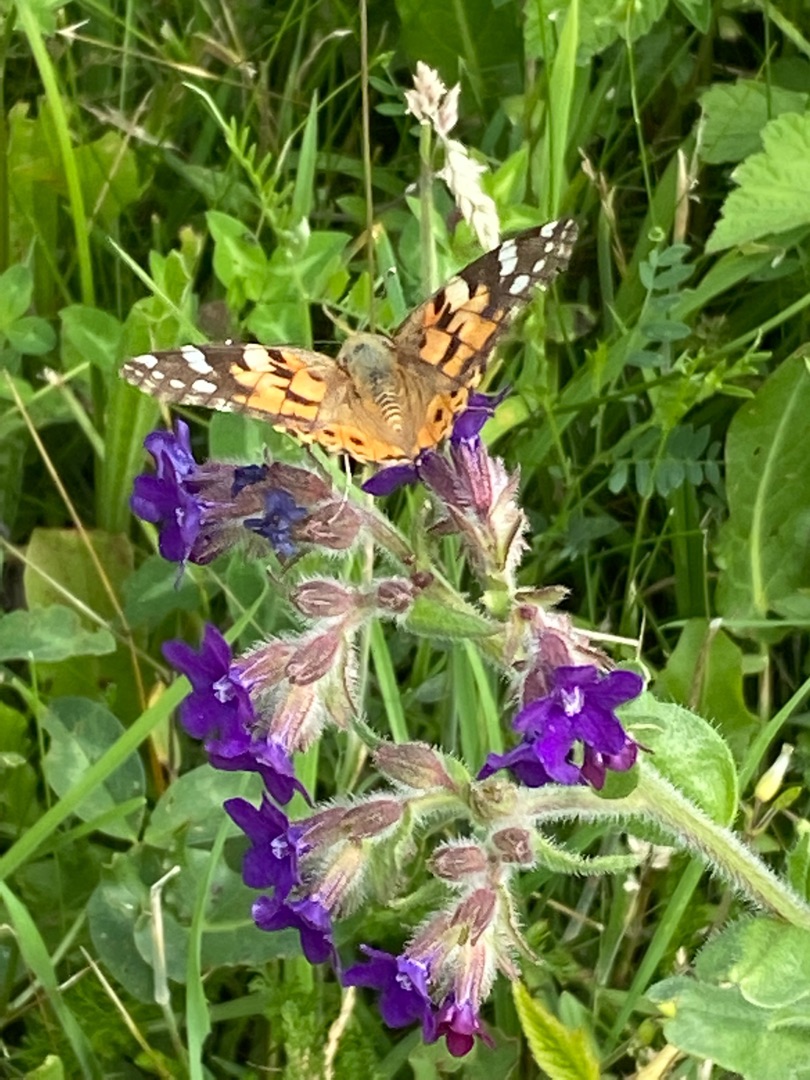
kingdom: Animalia
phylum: Arthropoda
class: Insecta
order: Lepidoptera
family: Nymphalidae
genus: Vanessa
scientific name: Vanessa cardui
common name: Tidselsommerfugl
